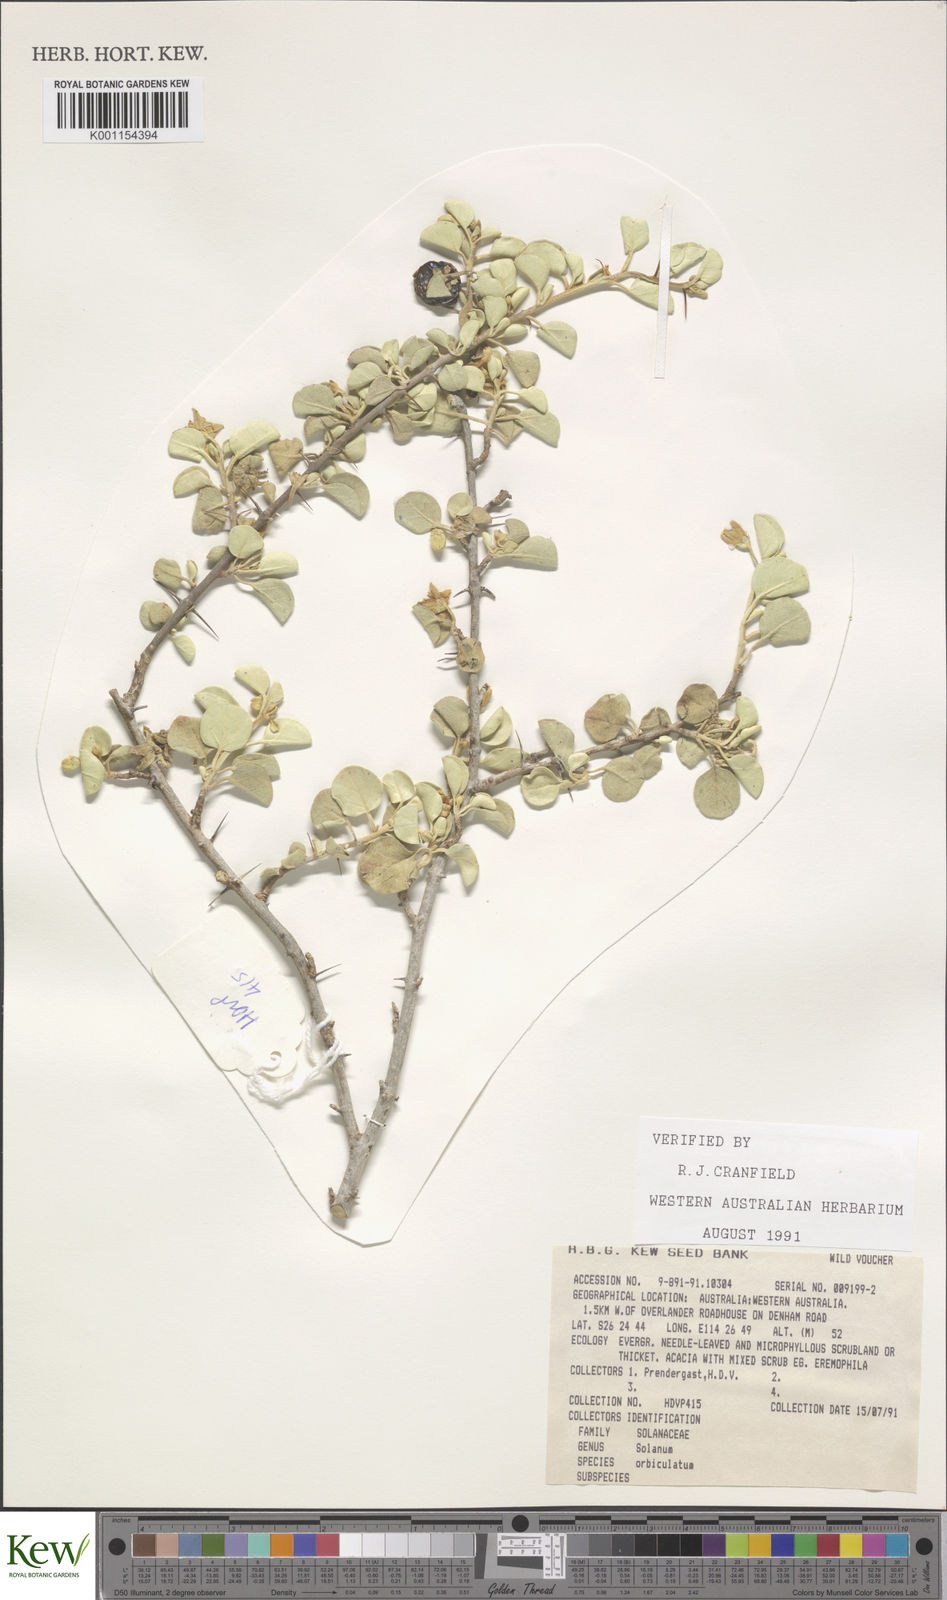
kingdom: Plantae
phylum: Tracheophyta
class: Magnoliopsida
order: Solanales
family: Solanaceae
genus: Solanum
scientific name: Solanum orbiculatum
